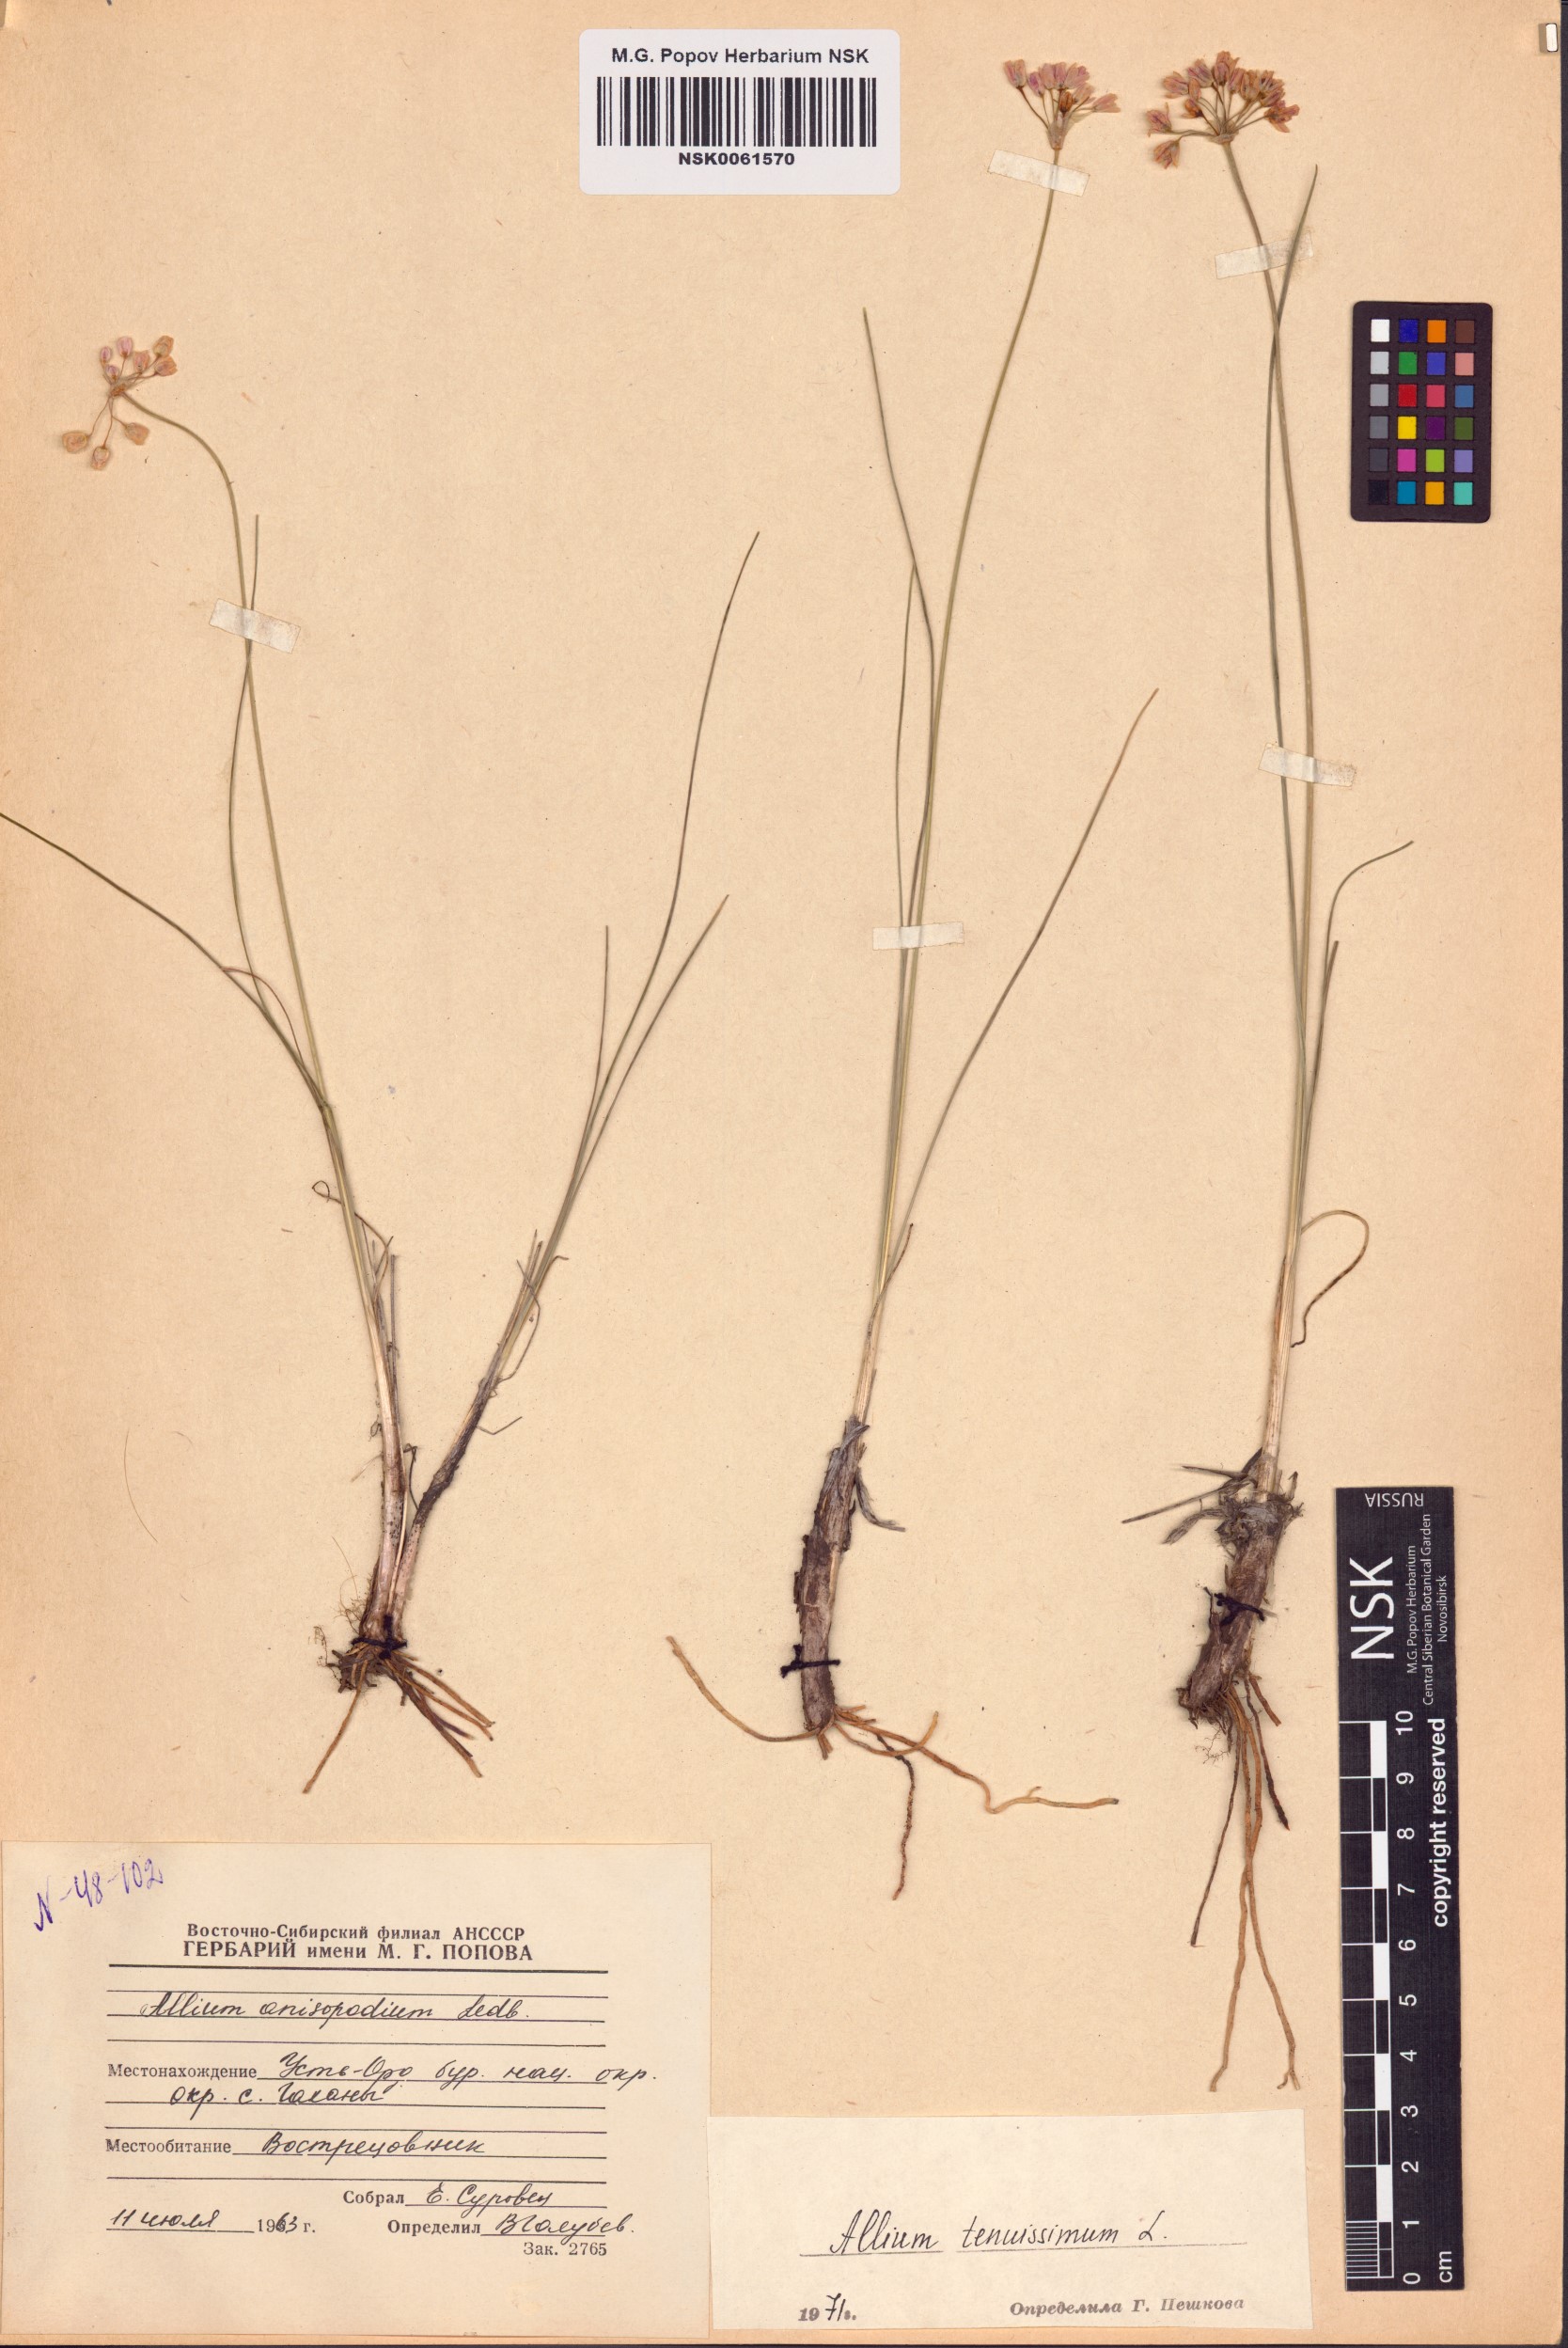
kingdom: Plantae
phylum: Tracheophyta
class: Liliopsida
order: Asparagales
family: Amaryllidaceae
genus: Allium
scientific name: Allium tenuissimum
